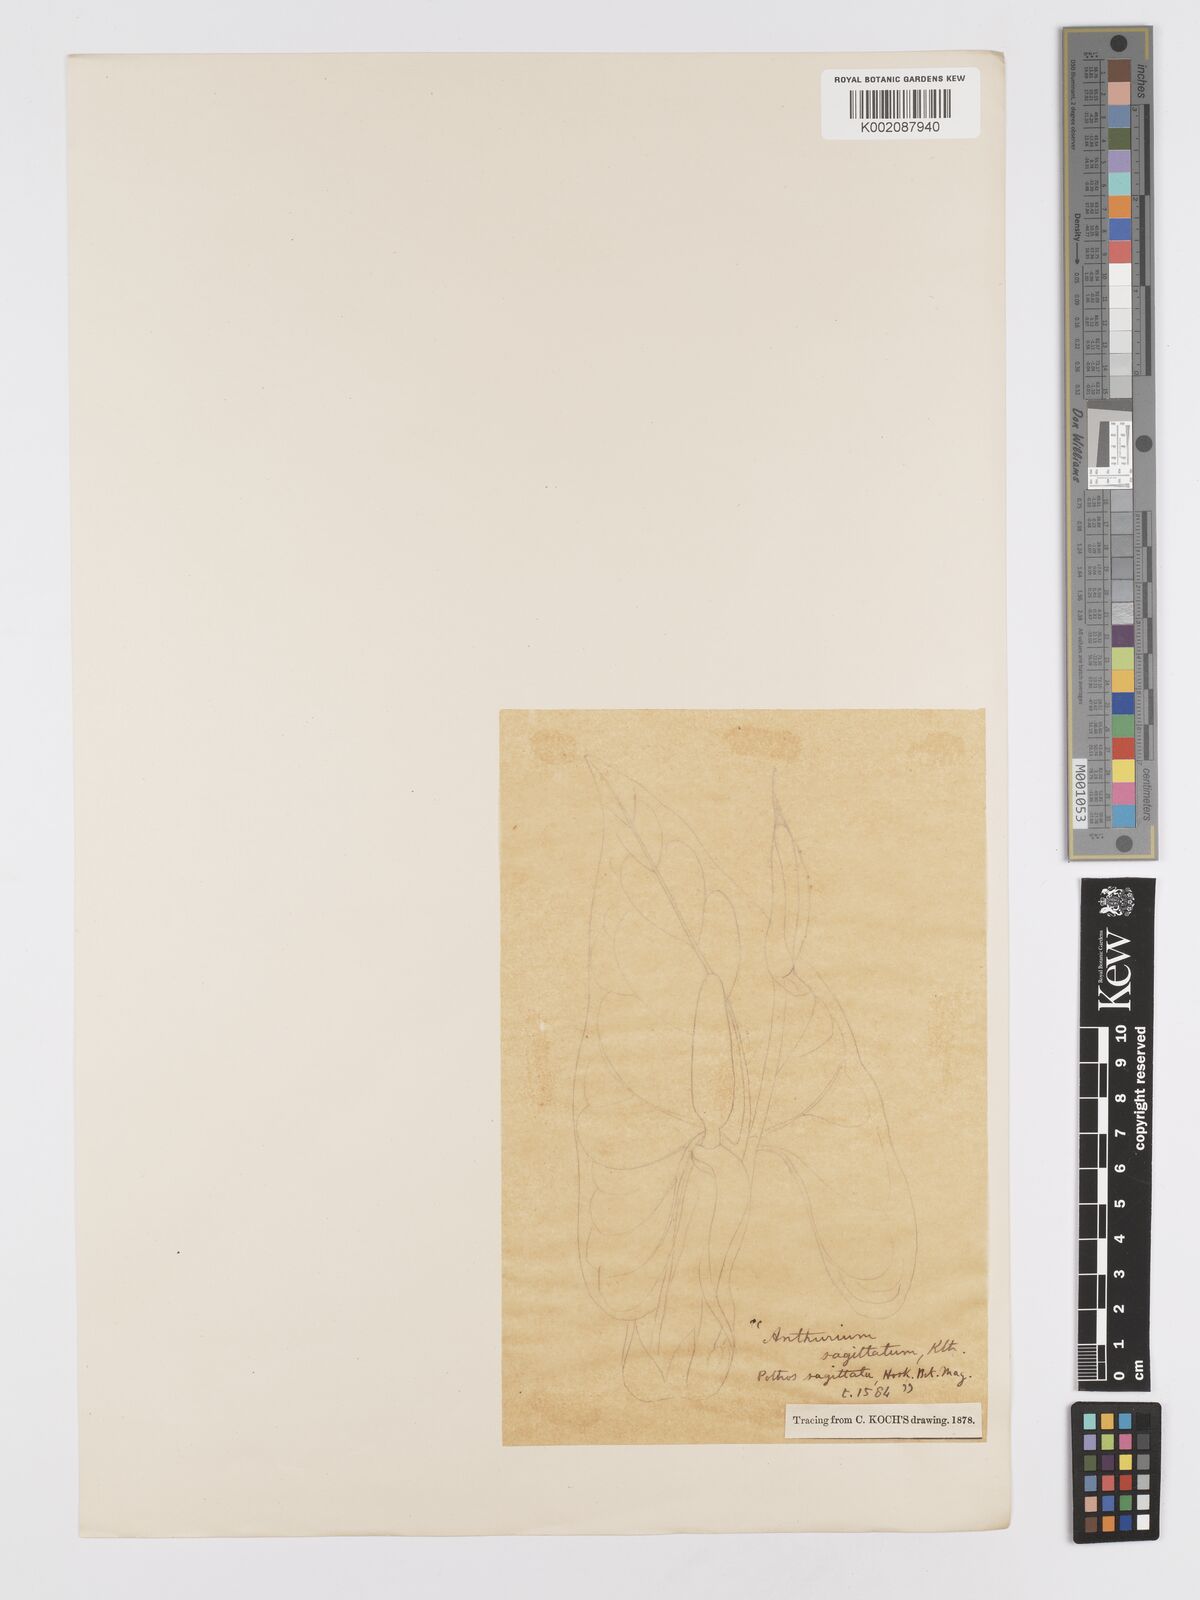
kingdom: Plantae
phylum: Tracheophyta
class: Liliopsida
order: Alismatales
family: Araceae
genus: Anthurium
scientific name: Anthurium sagittatum
